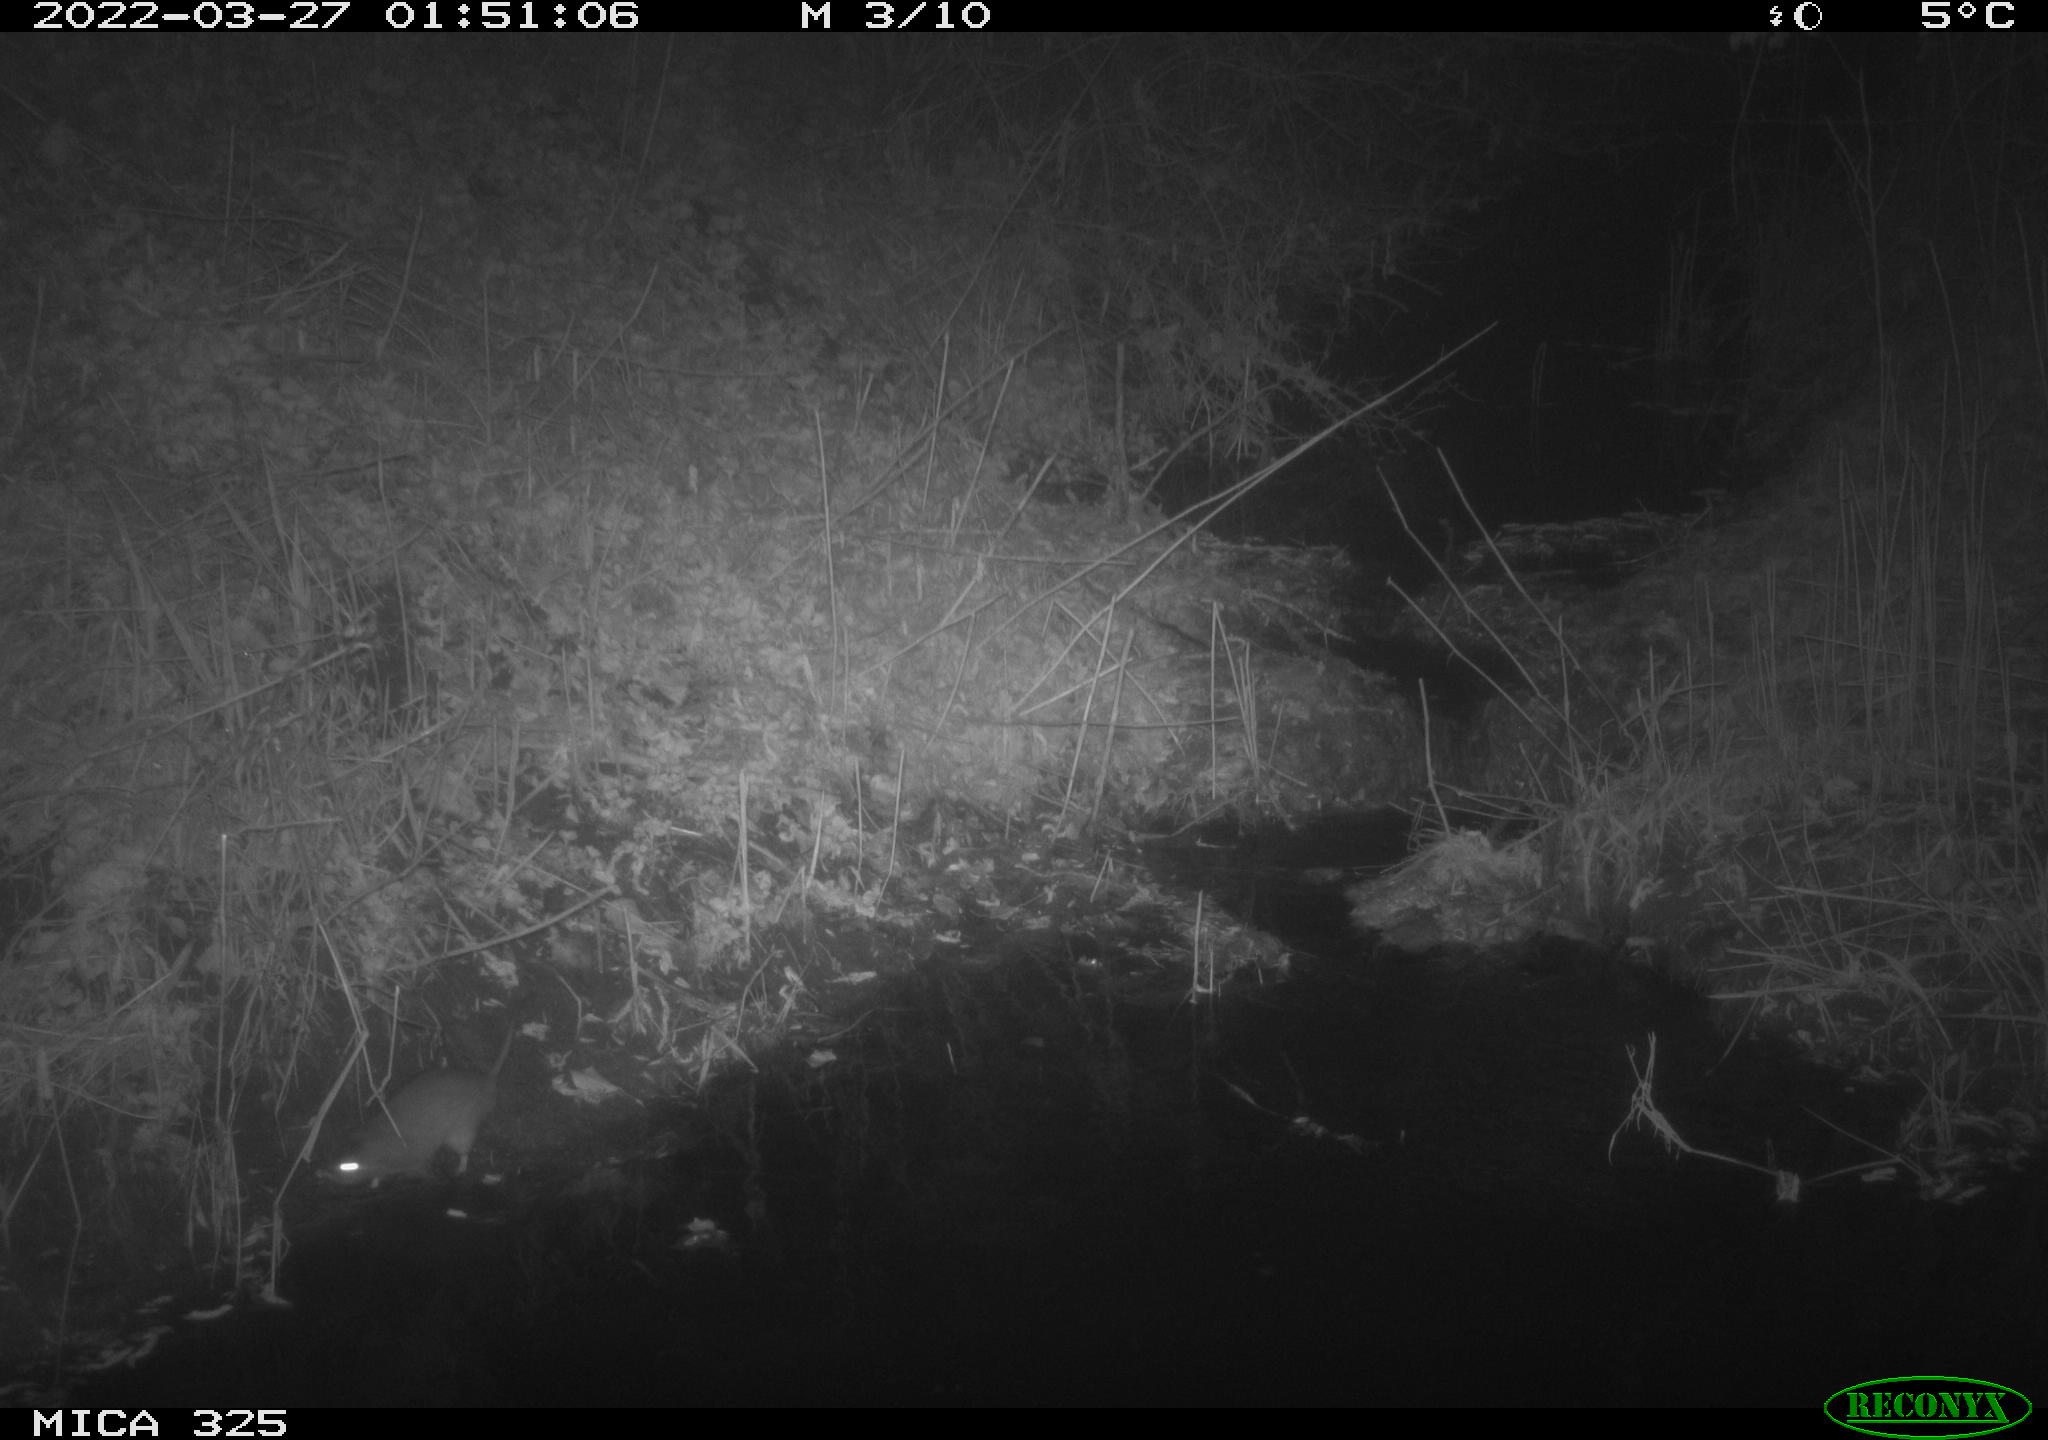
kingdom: Animalia
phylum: Chordata
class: Mammalia
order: Rodentia
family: Muridae
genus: Rattus
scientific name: Rattus norvegicus
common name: Brown rat
